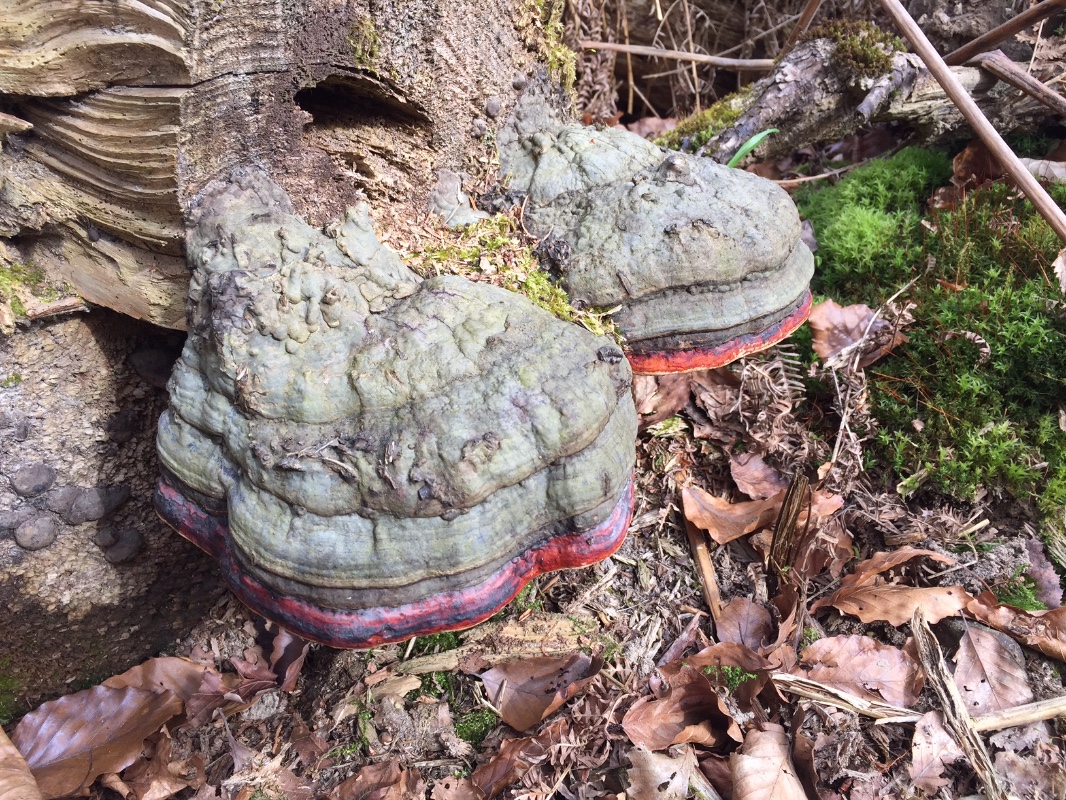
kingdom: Fungi
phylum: Basidiomycota
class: Agaricomycetes
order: Polyporales
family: Fomitopsidaceae
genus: Fomitopsis
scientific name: Fomitopsis pinicola
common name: randbæltet hovporesvamp
